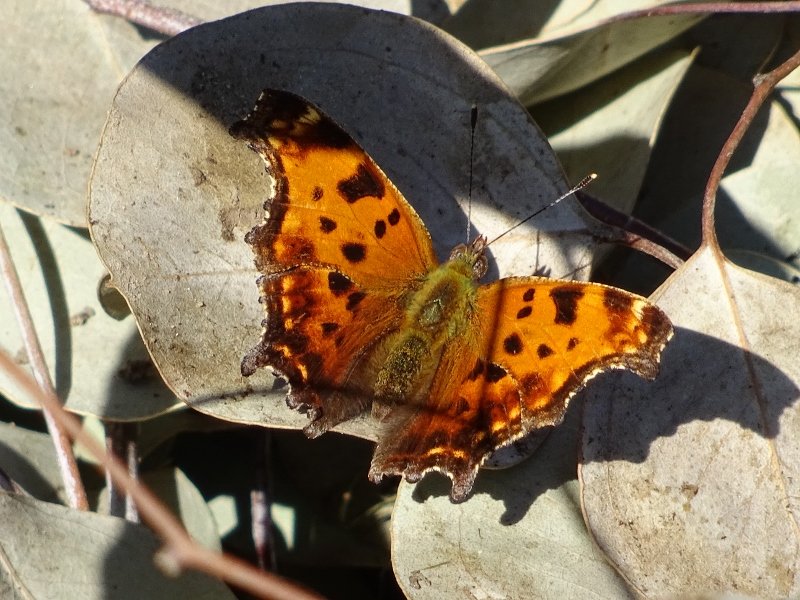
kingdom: Animalia
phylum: Arthropoda
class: Insecta
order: Lepidoptera
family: Nymphalidae
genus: Polygonia
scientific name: Polygonia comma
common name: Eastern Comma
